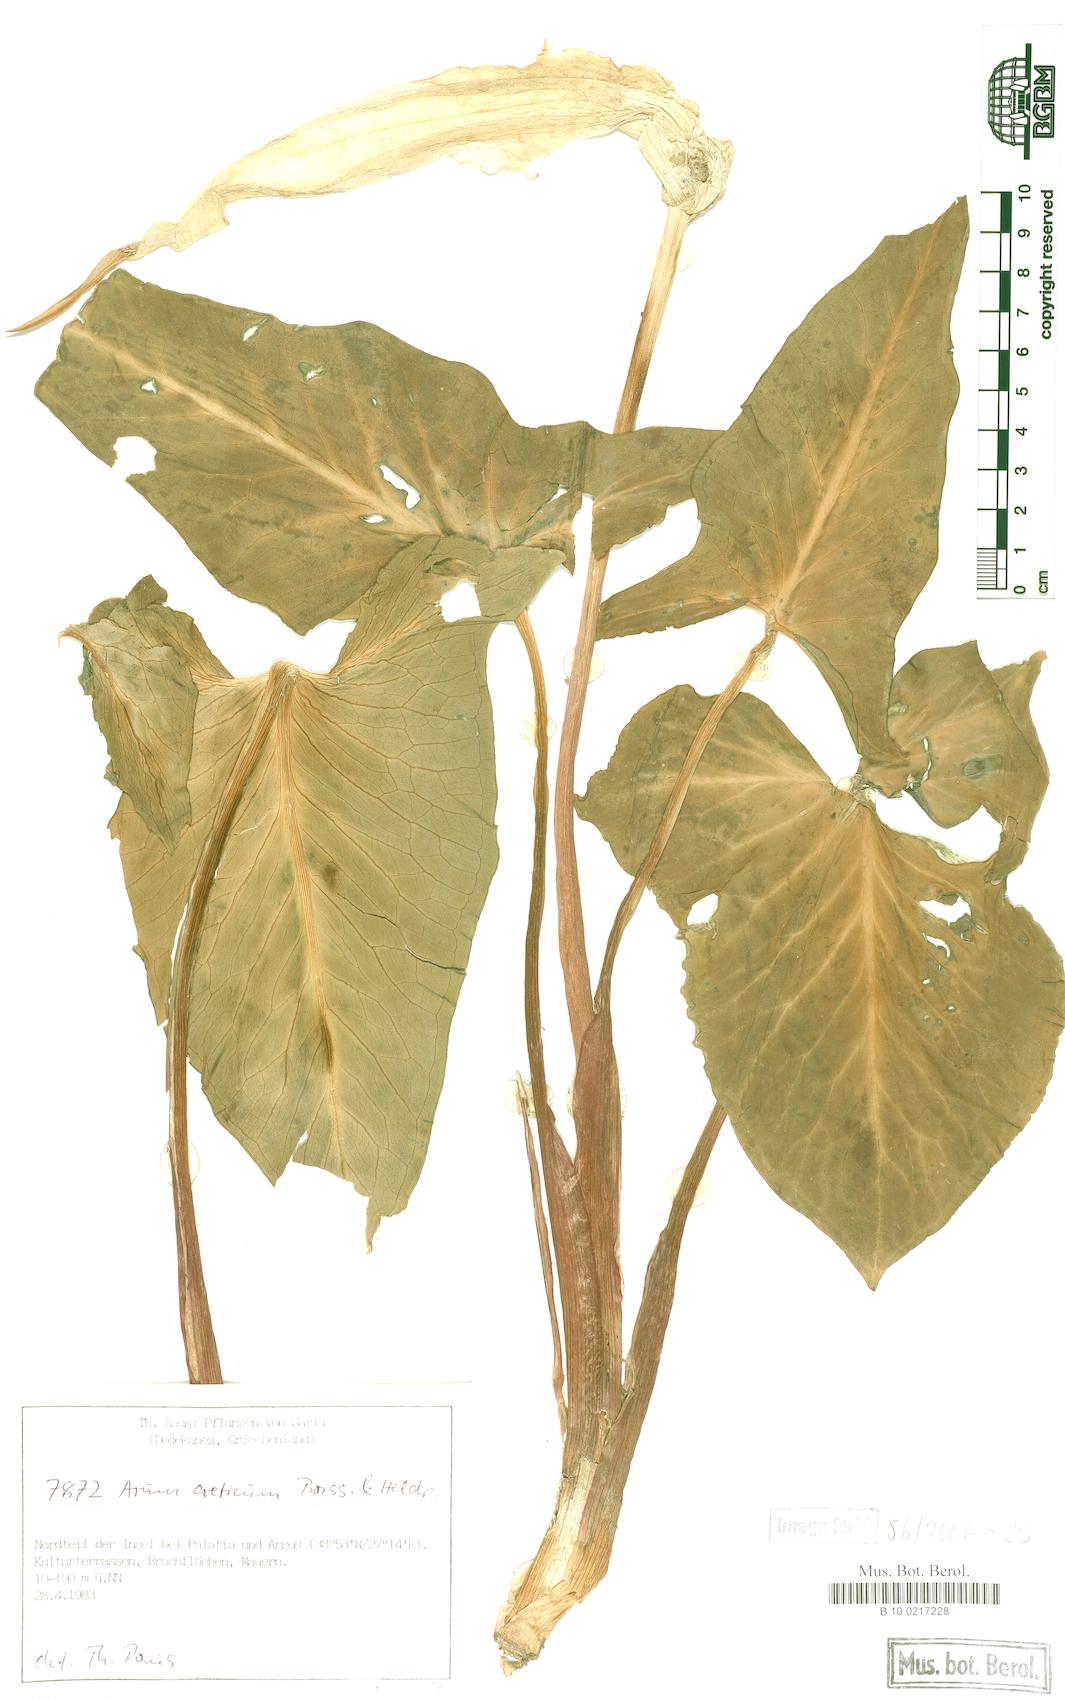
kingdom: Plantae
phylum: Tracheophyta
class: Liliopsida
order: Alismatales
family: Araceae
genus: Arum
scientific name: Arum creticum
